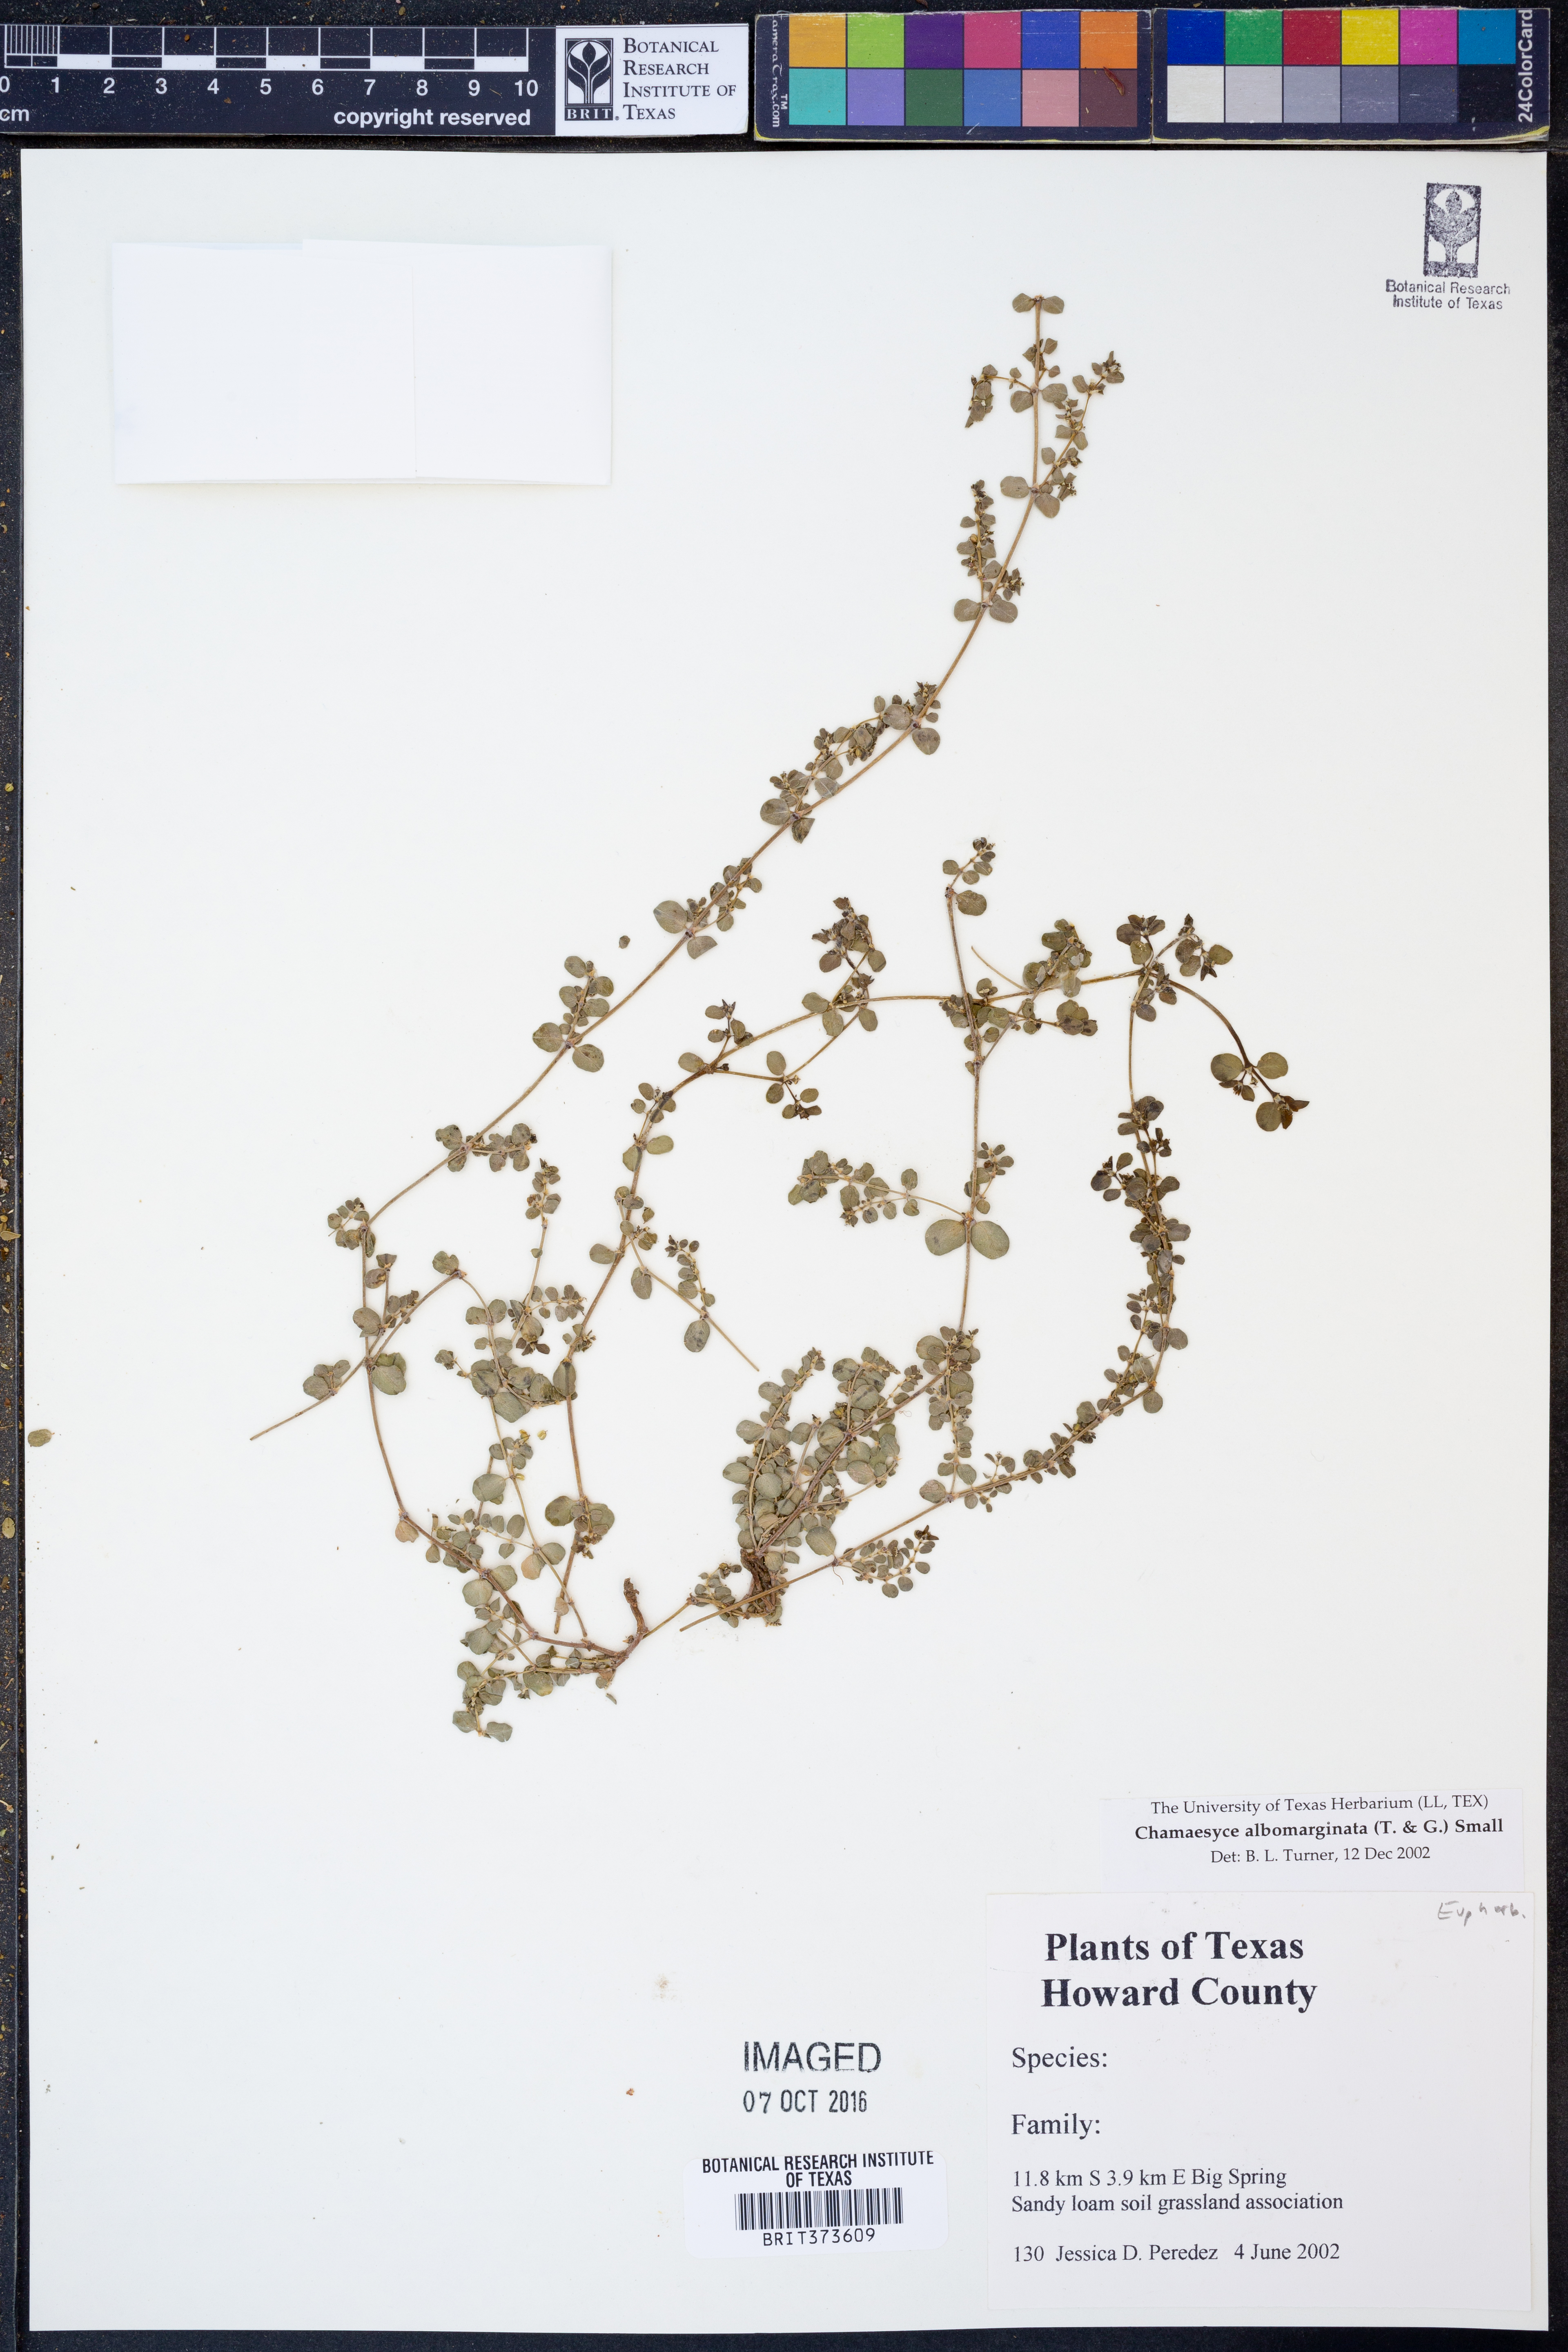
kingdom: Plantae
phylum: Tracheophyta
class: Magnoliopsida
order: Malpighiales
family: Euphorbiaceae
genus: Euphorbia
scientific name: Euphorbia albomarginata
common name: Whitemargin sandmat
